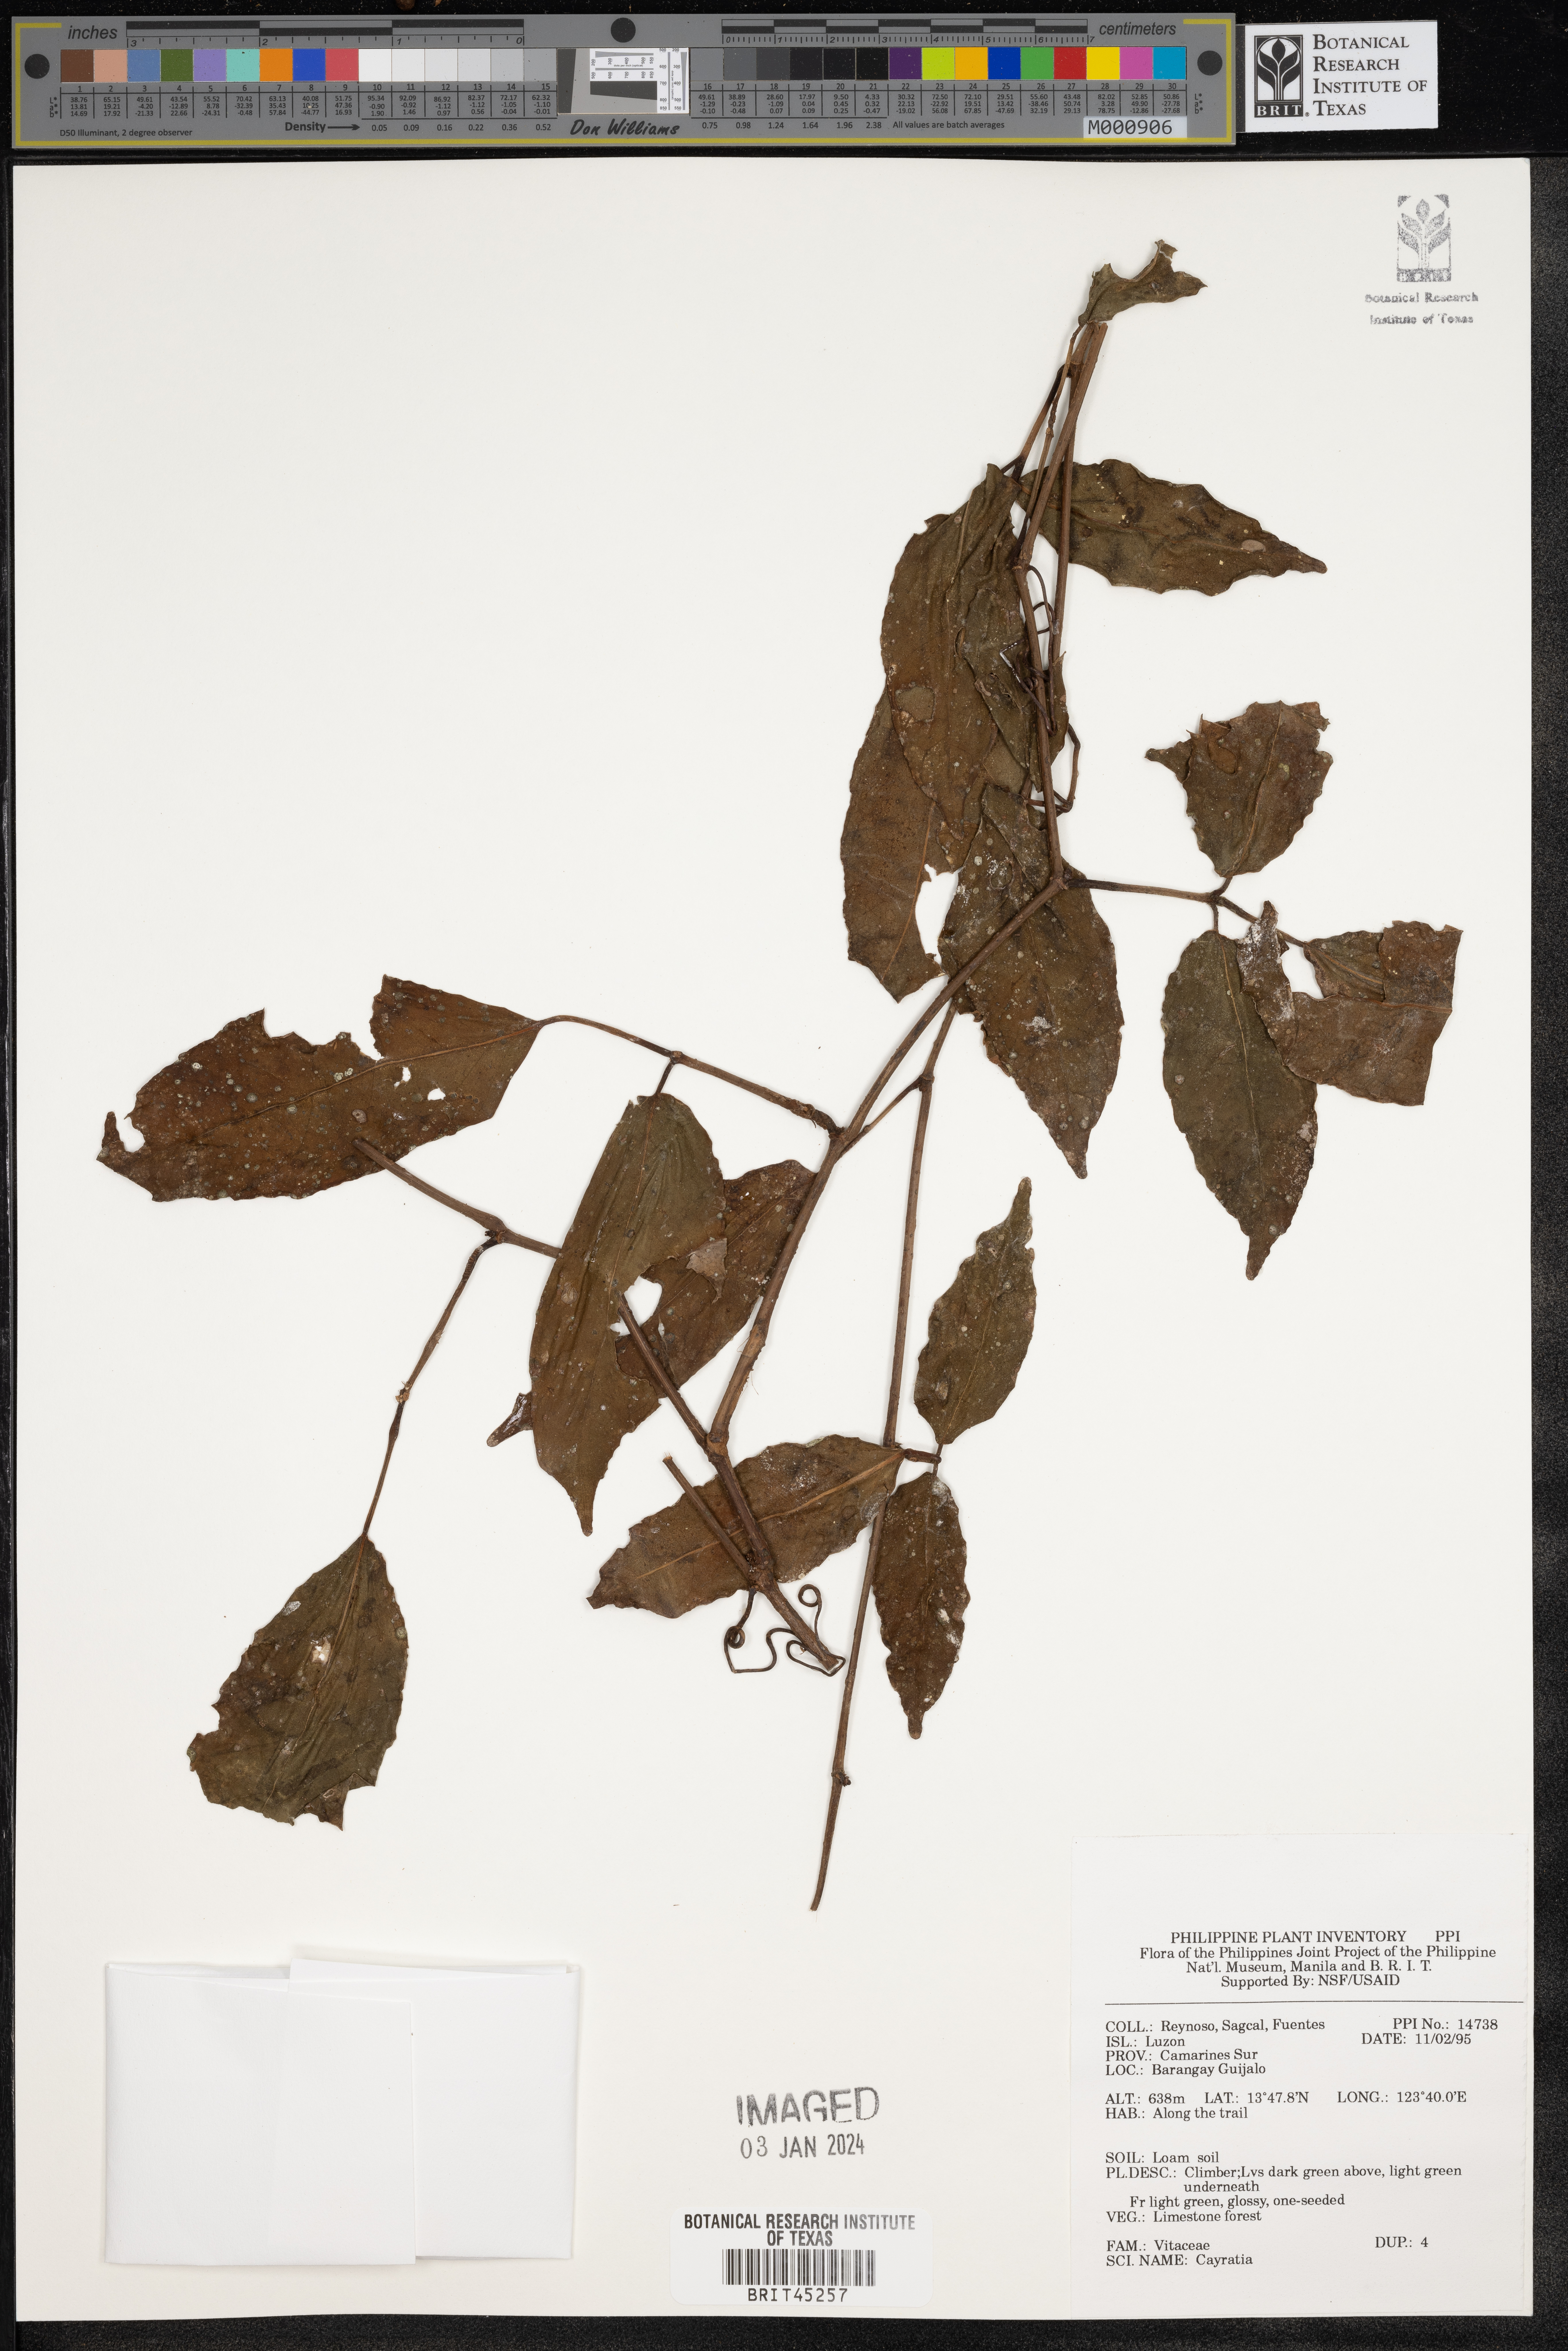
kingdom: Plantae
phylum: Tracheophyta
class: Magnoliopsida
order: Vitales
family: Vitaceae
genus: Cayratia
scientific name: Cayratia
